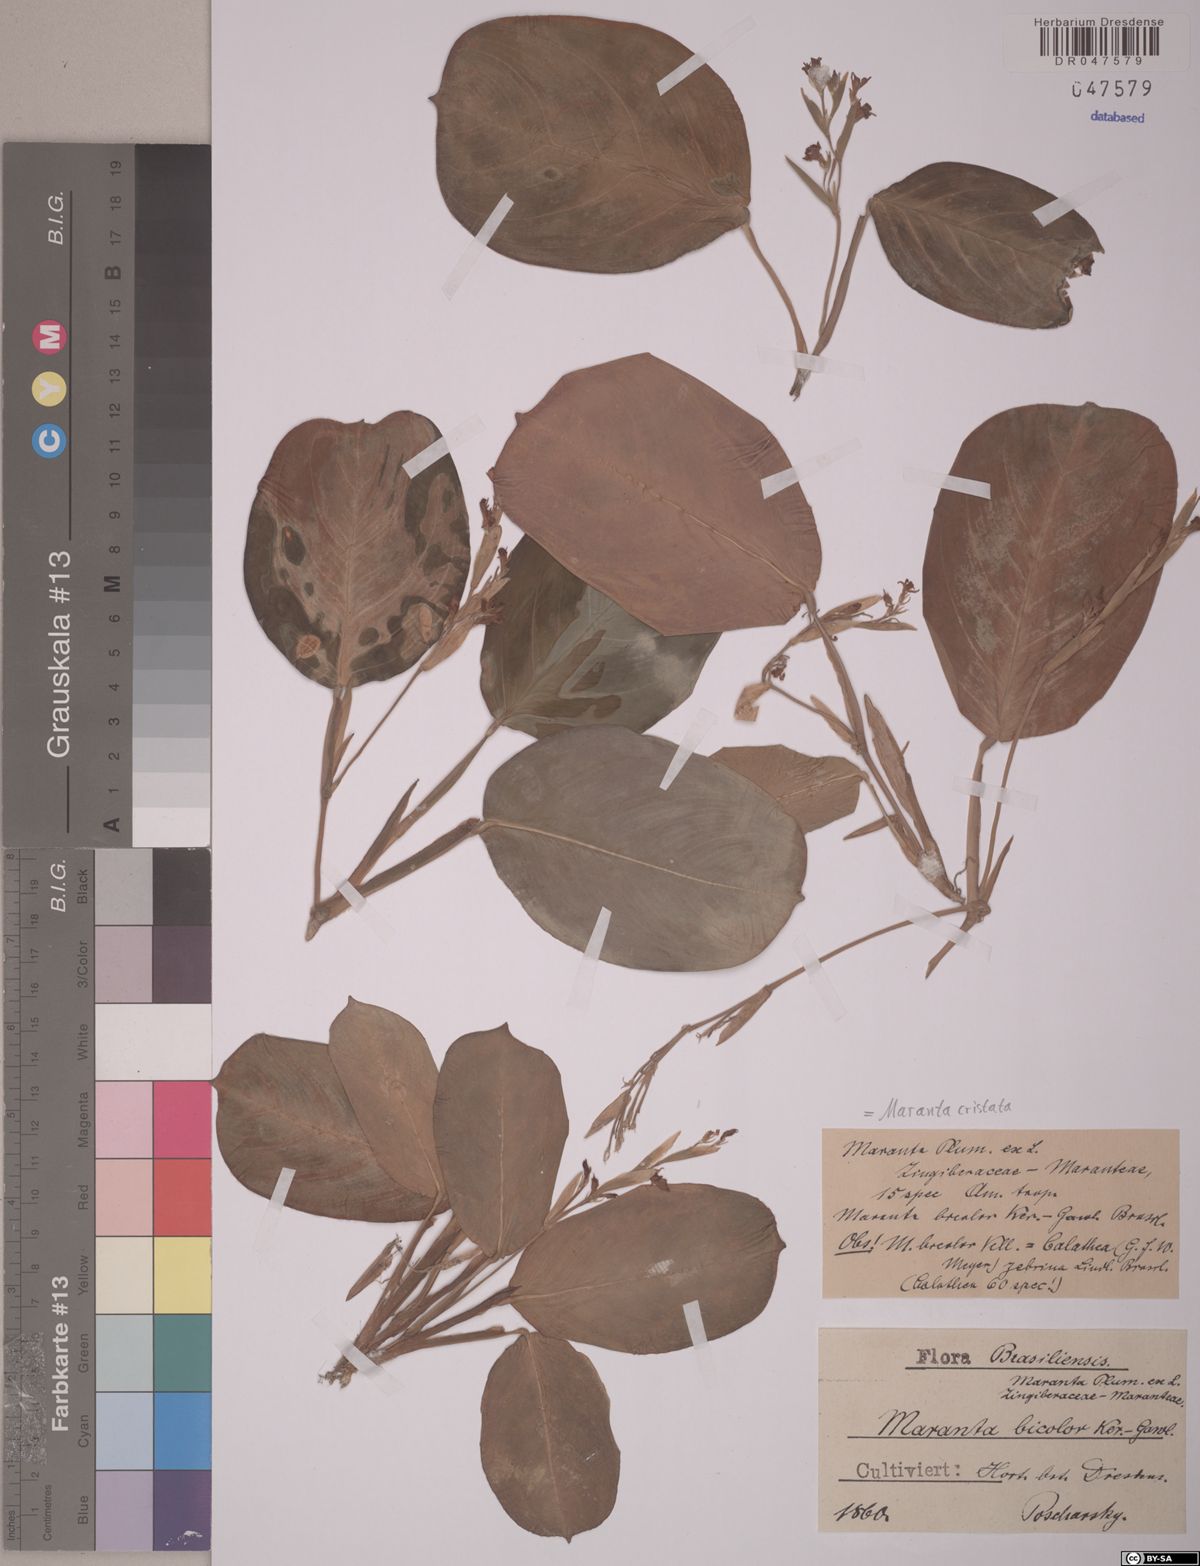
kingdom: Plantae
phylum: Tracheophyta
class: Liliopsida
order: Zingiberales
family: Marantaceae
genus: Maranta
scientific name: Maranta cristata
